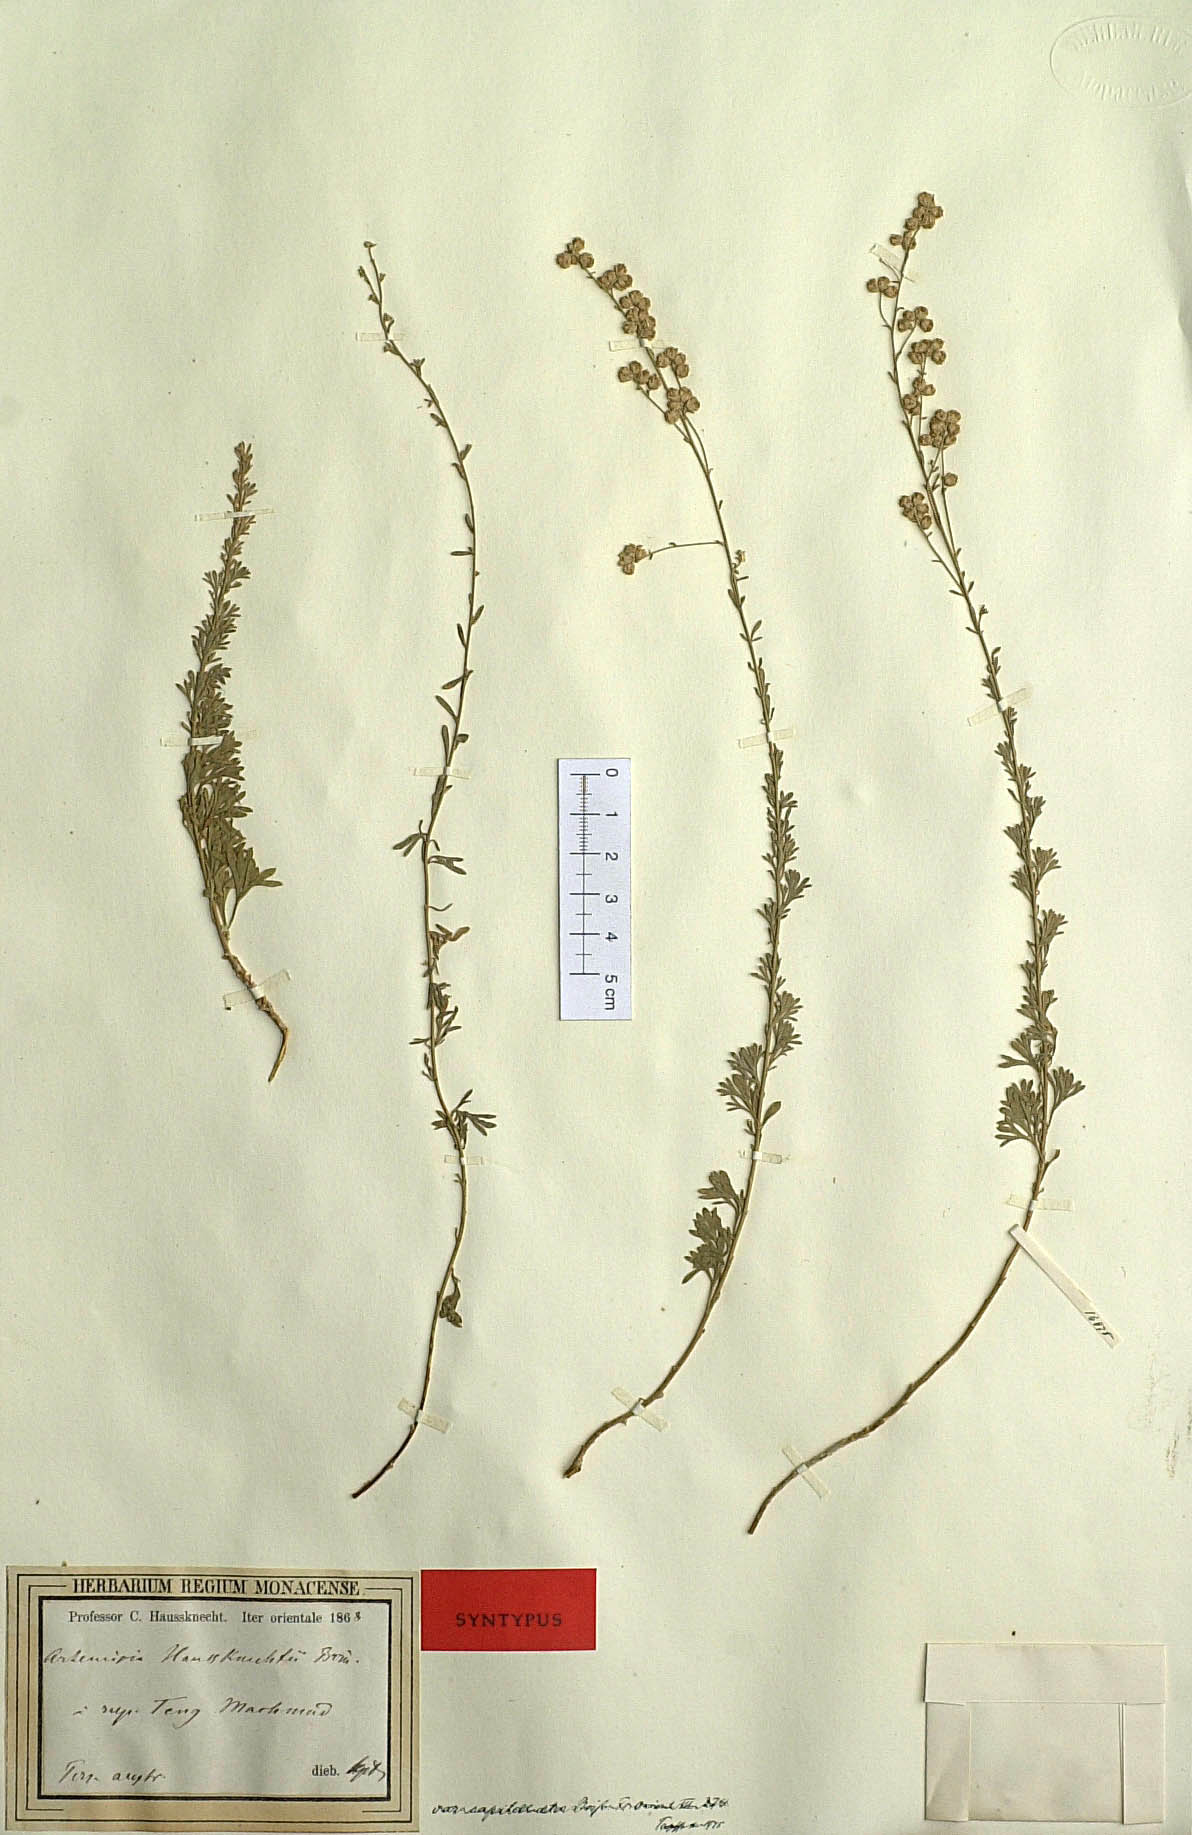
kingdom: Plantae
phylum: Tracheophyta
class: Magnoliopsida
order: Asterales
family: Asteraceae
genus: Artemisia
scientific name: Artemisia haussknechtii
